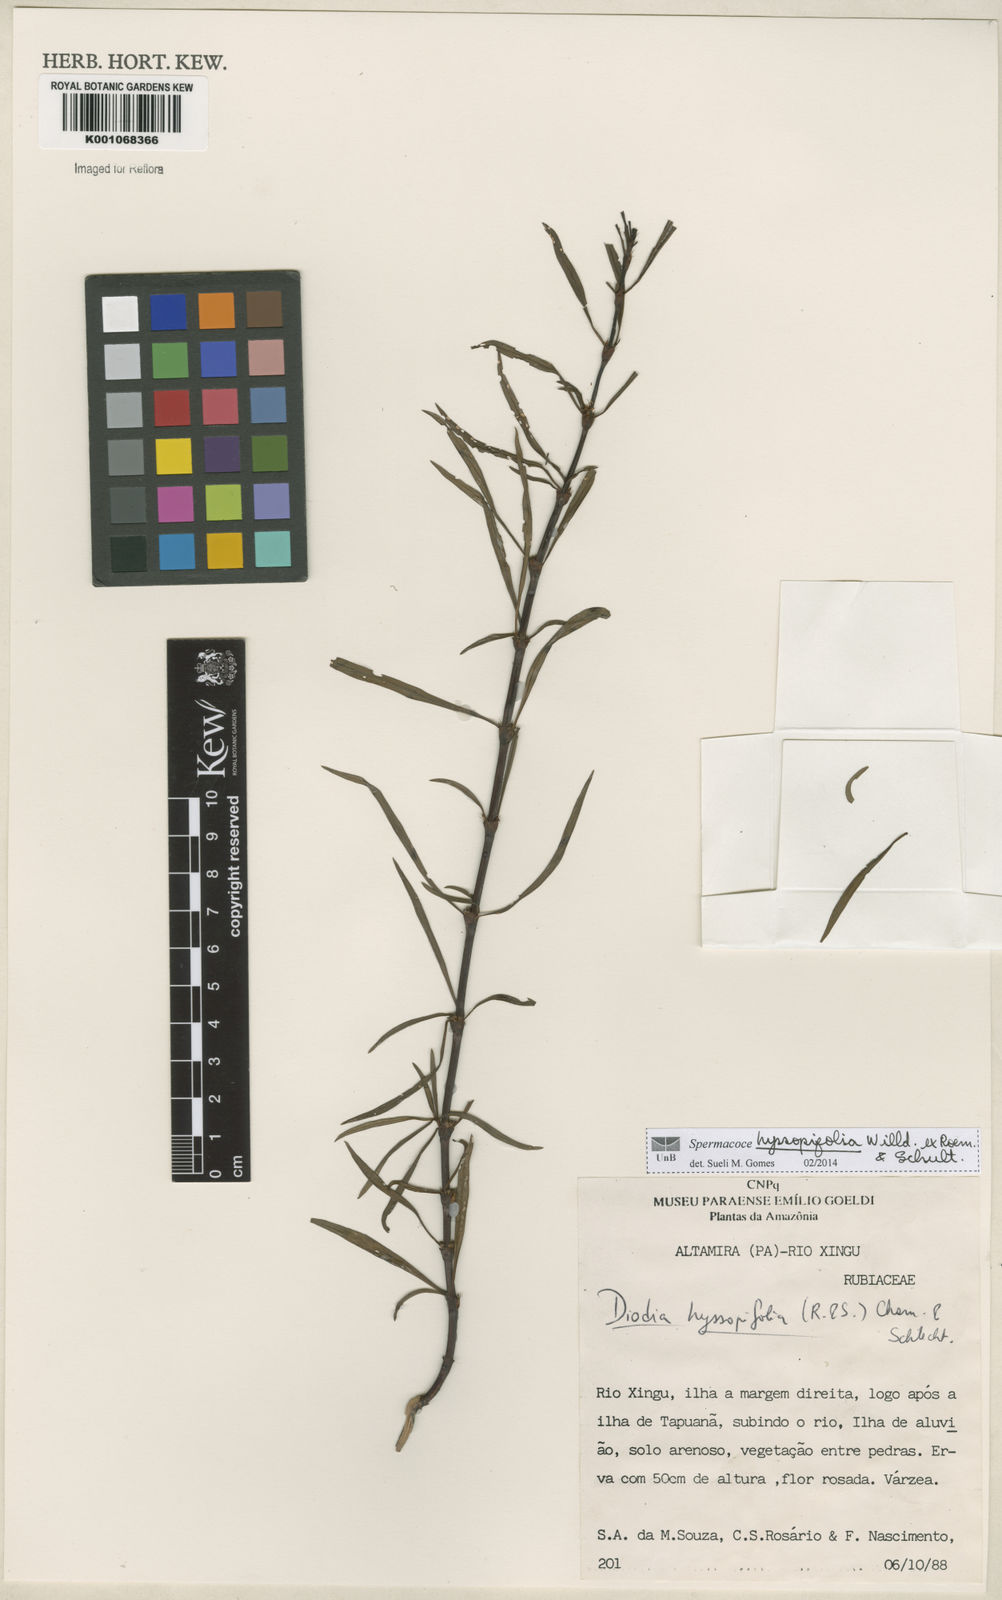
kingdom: Plantae
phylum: Tracheophyta
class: Magnoliopsida
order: Gentianales
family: Rubiaceae
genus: Spermacoce
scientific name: Spermacoce
